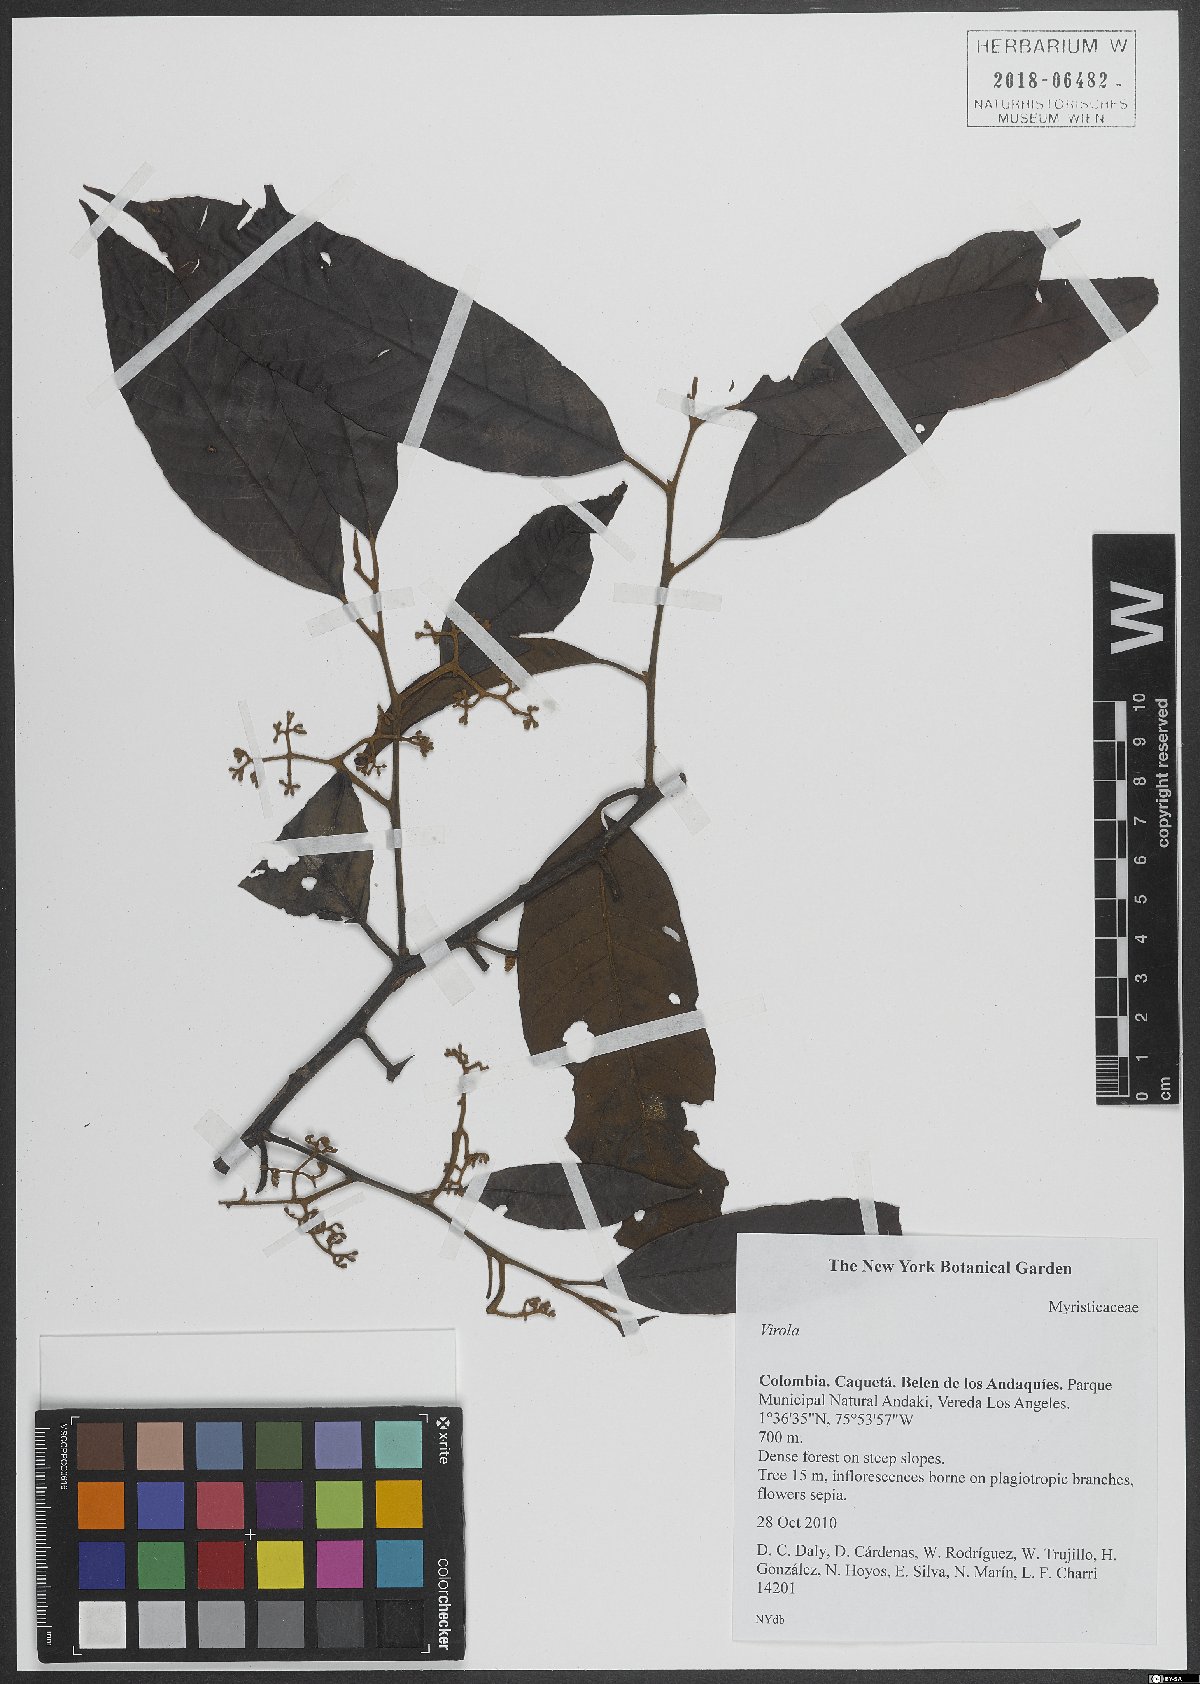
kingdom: Plantae
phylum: Tracheophyta
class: Magnoliopsida
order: Magnoliales
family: Myristicaceae
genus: Virola
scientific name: Virola
